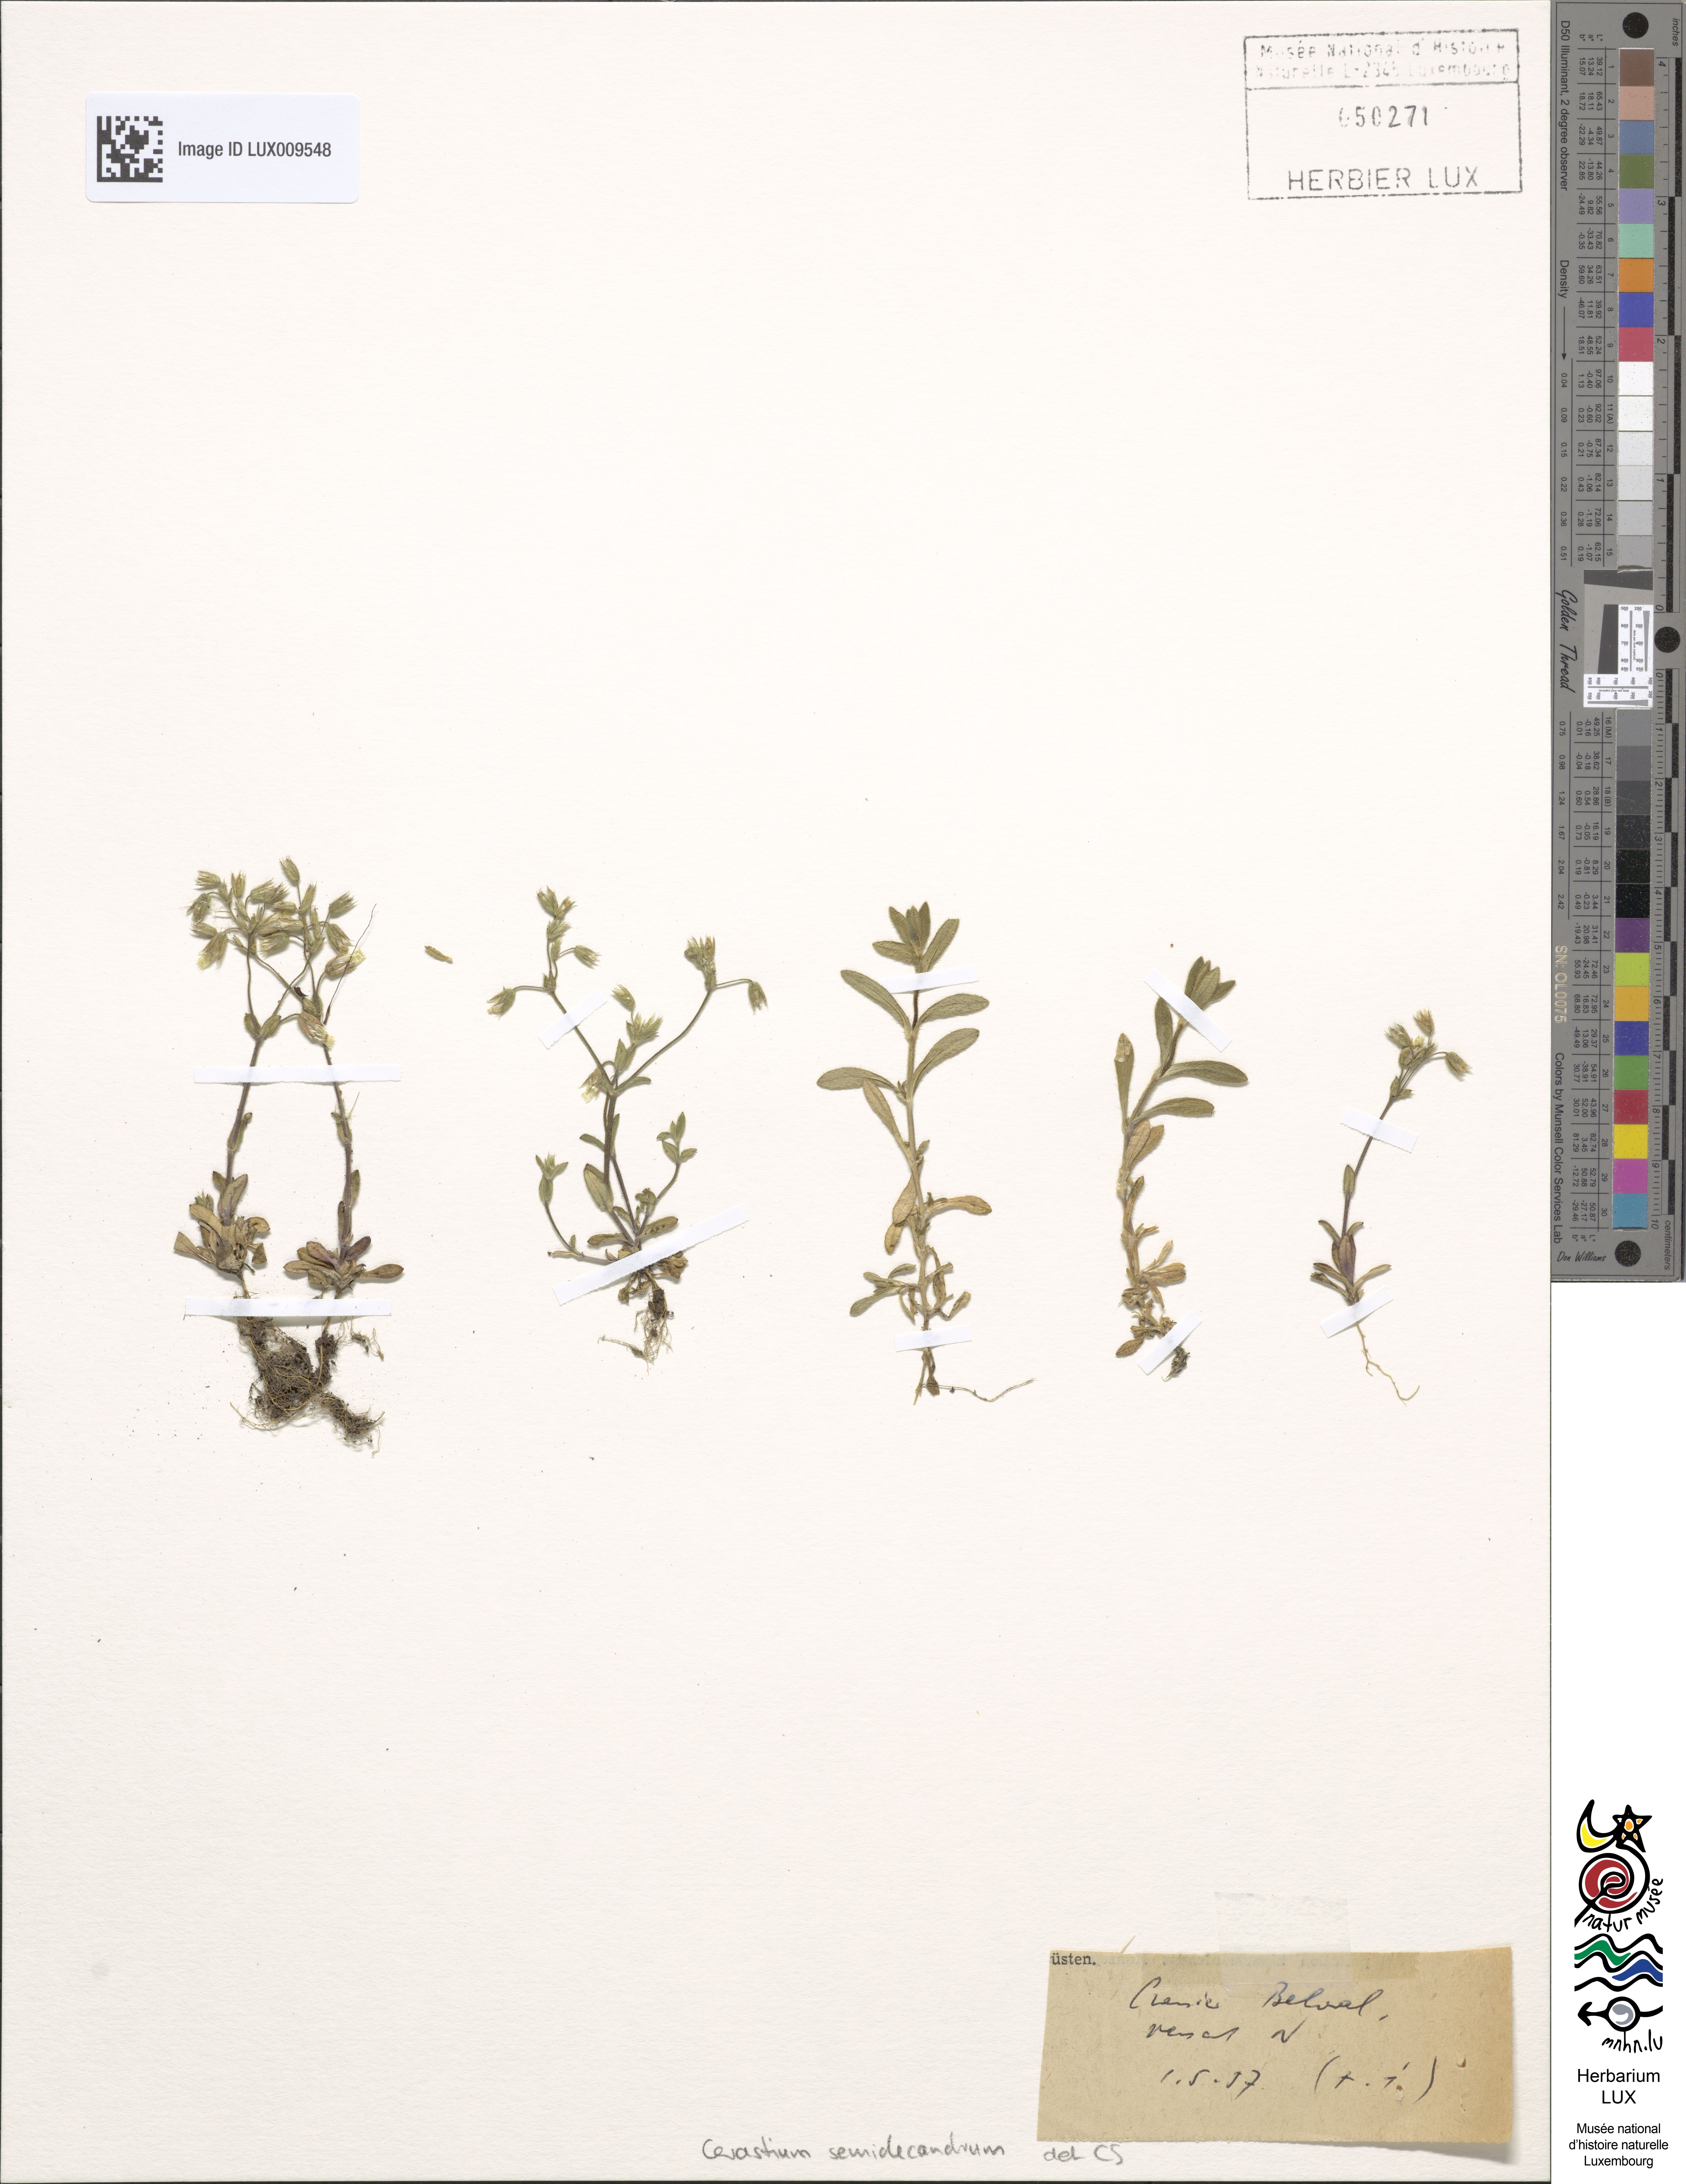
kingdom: Plantae
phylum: Tracheophyta
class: Magnoliopsida
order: Caryophyllales
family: Caryophyllaceae
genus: Cerastium
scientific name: Cerastium semidecandrum
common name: Little mouse-ear
